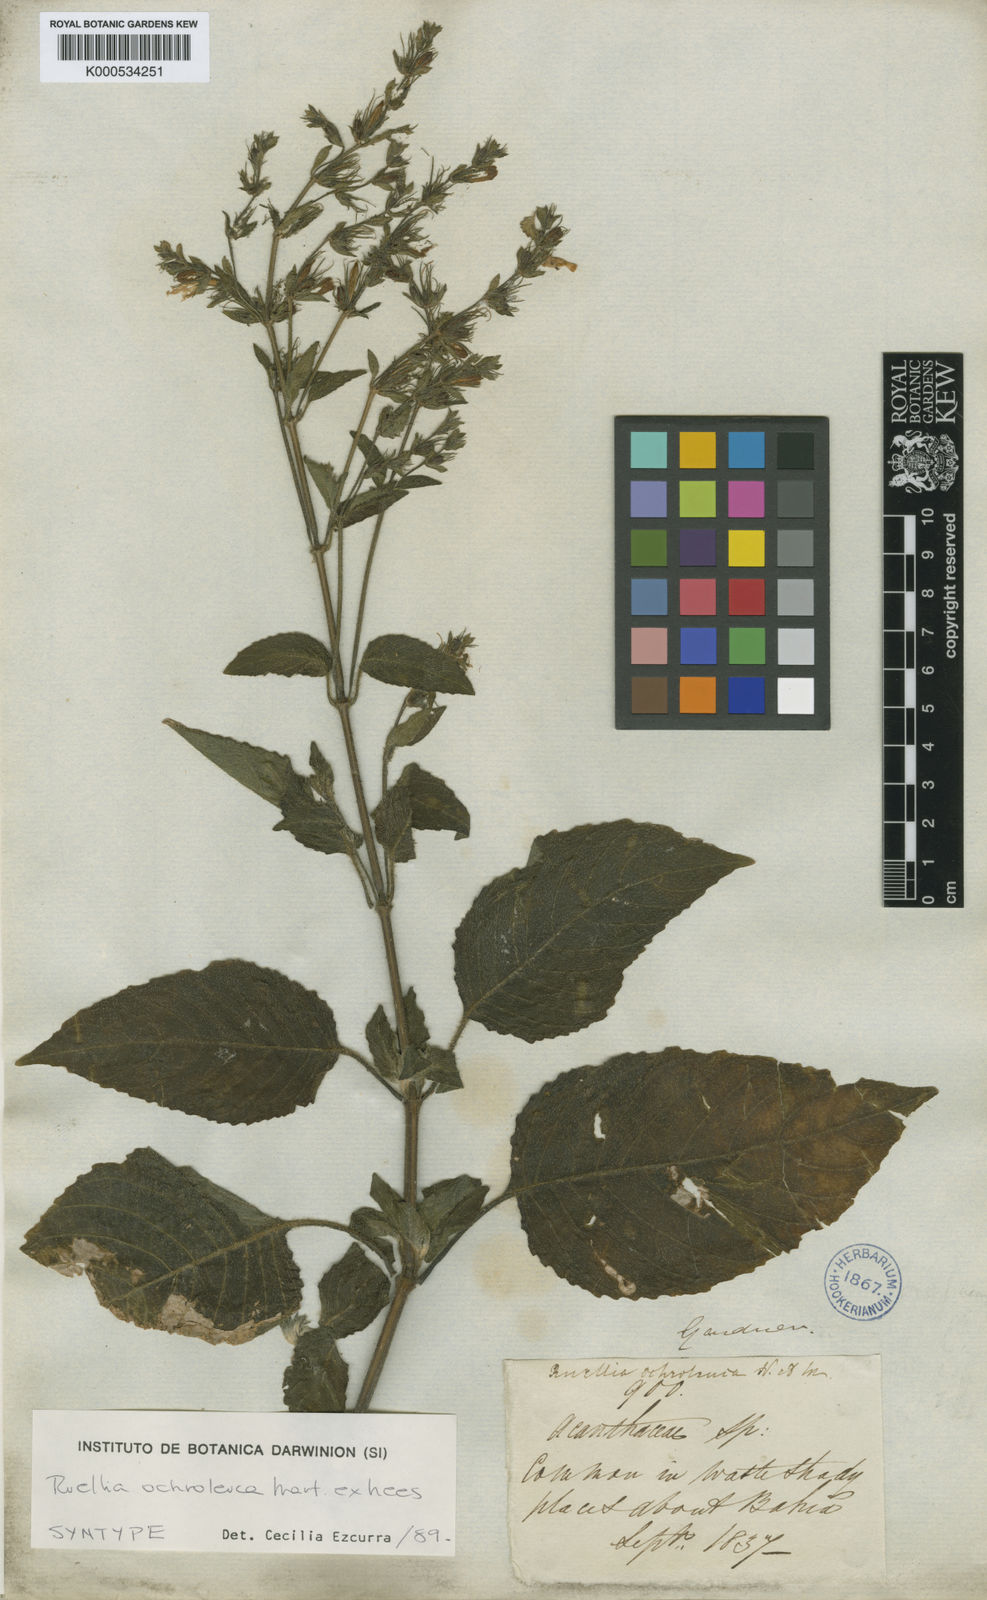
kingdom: Plantae
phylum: Tracheophyta
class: Magnoliopsida
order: Lamiales
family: Acanthaceae
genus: Ruellia
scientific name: Ruellia ochroleuca
